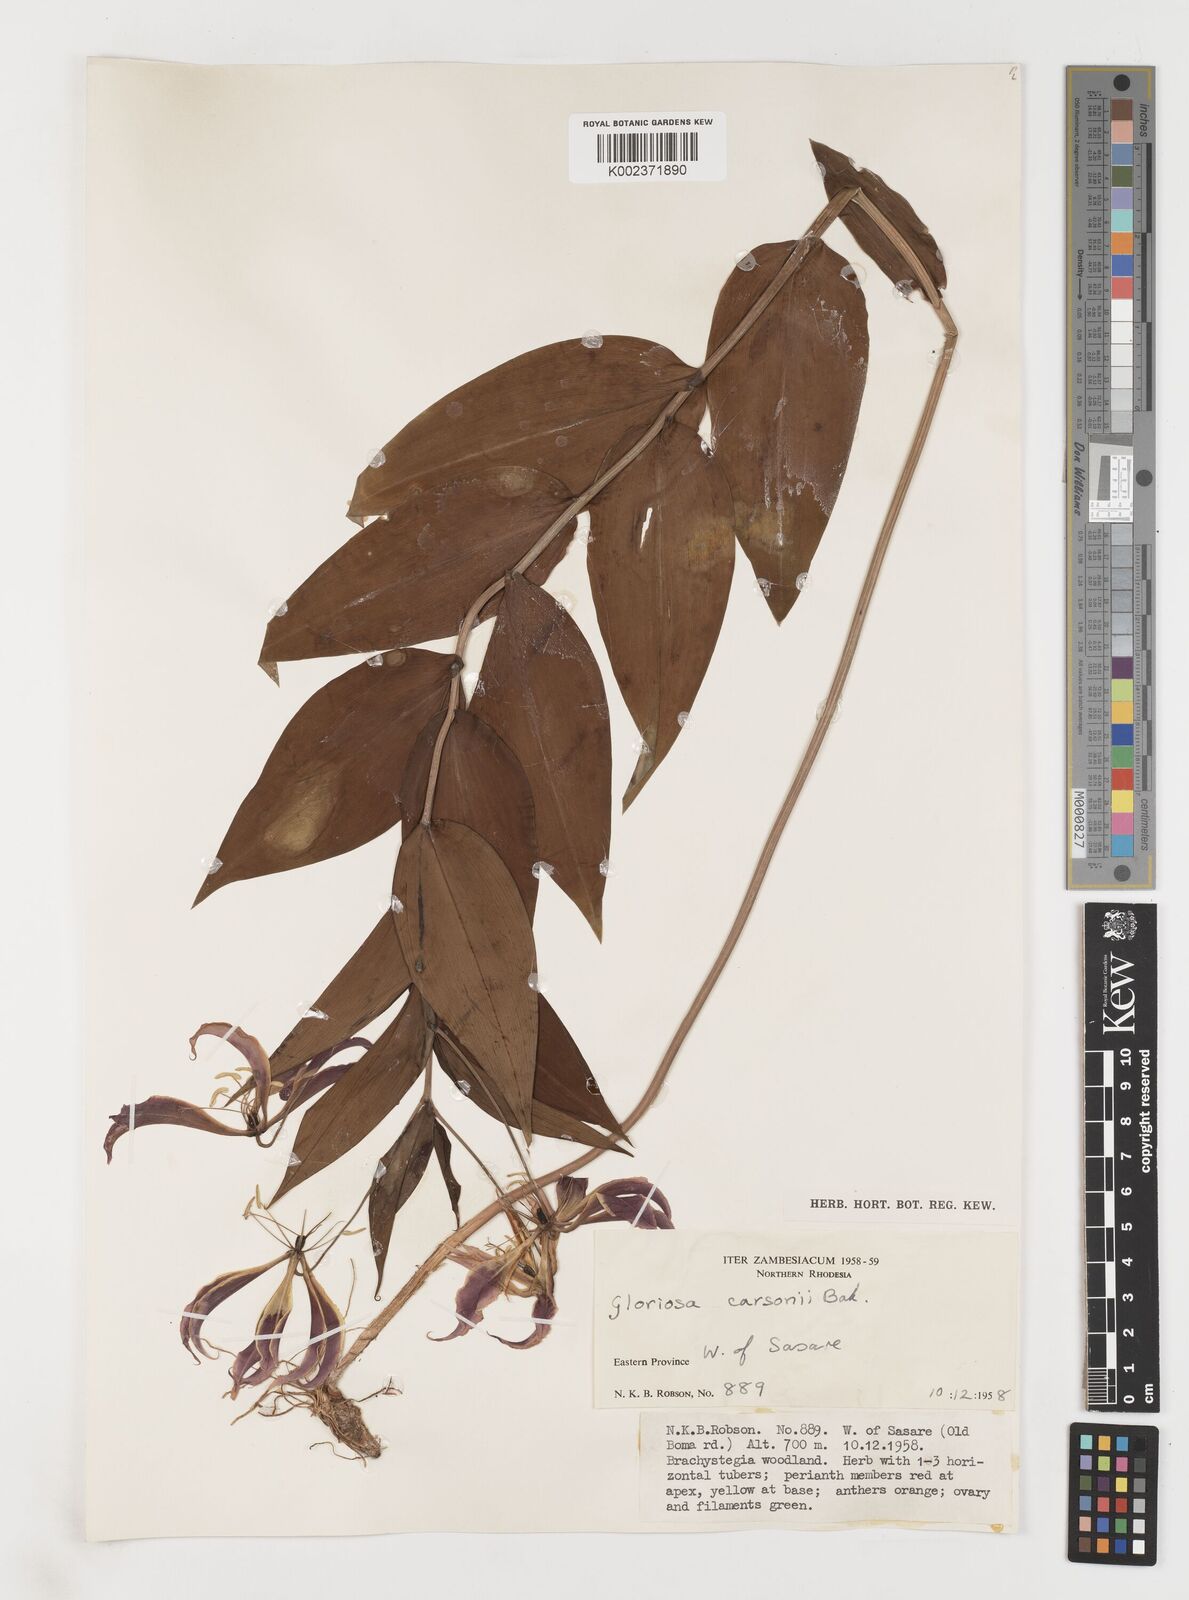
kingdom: Plantae
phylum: Tracheophyta
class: Liliopsida
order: Liliales
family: Colchicaceae
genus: Gloriosa
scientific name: Gloriosa simplex
